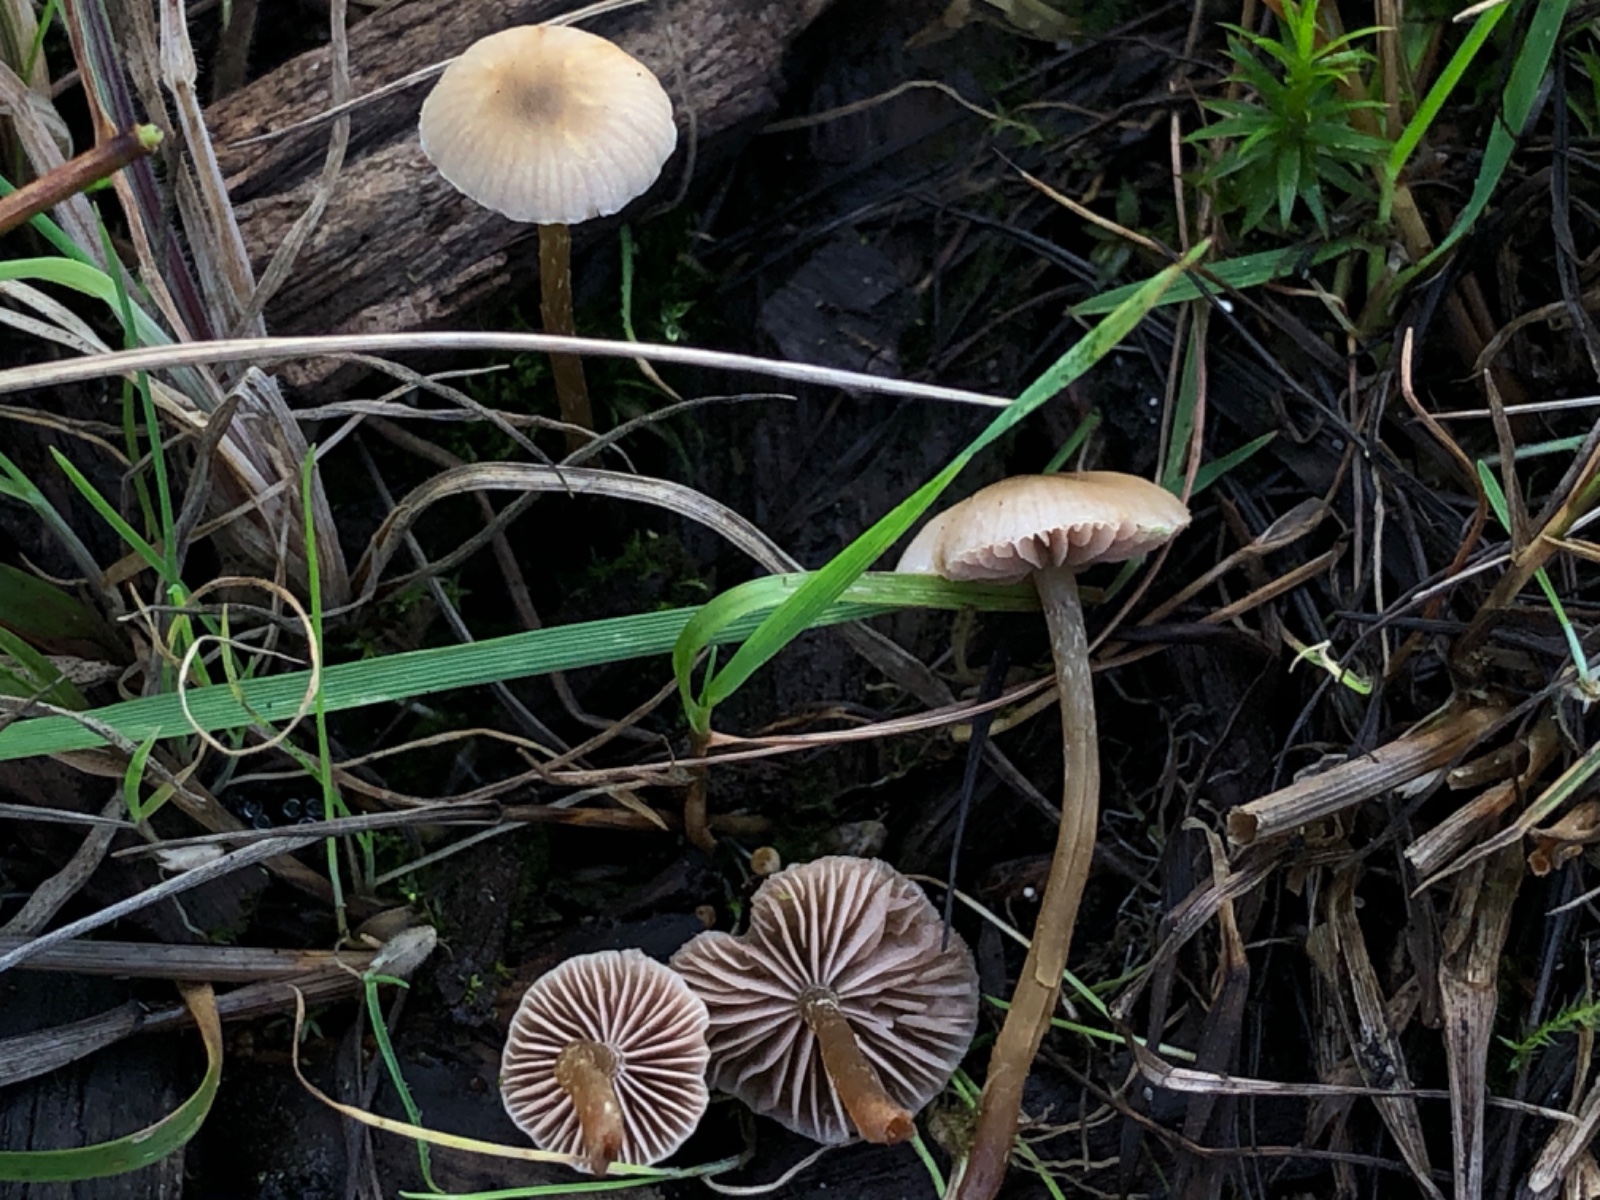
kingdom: Fungi
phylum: Basidiomycota
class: Agaricomycetes
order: Agaricales
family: Strophariaceae
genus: Hypholoma
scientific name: Hypholoma elongatum
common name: slank svovlhat
